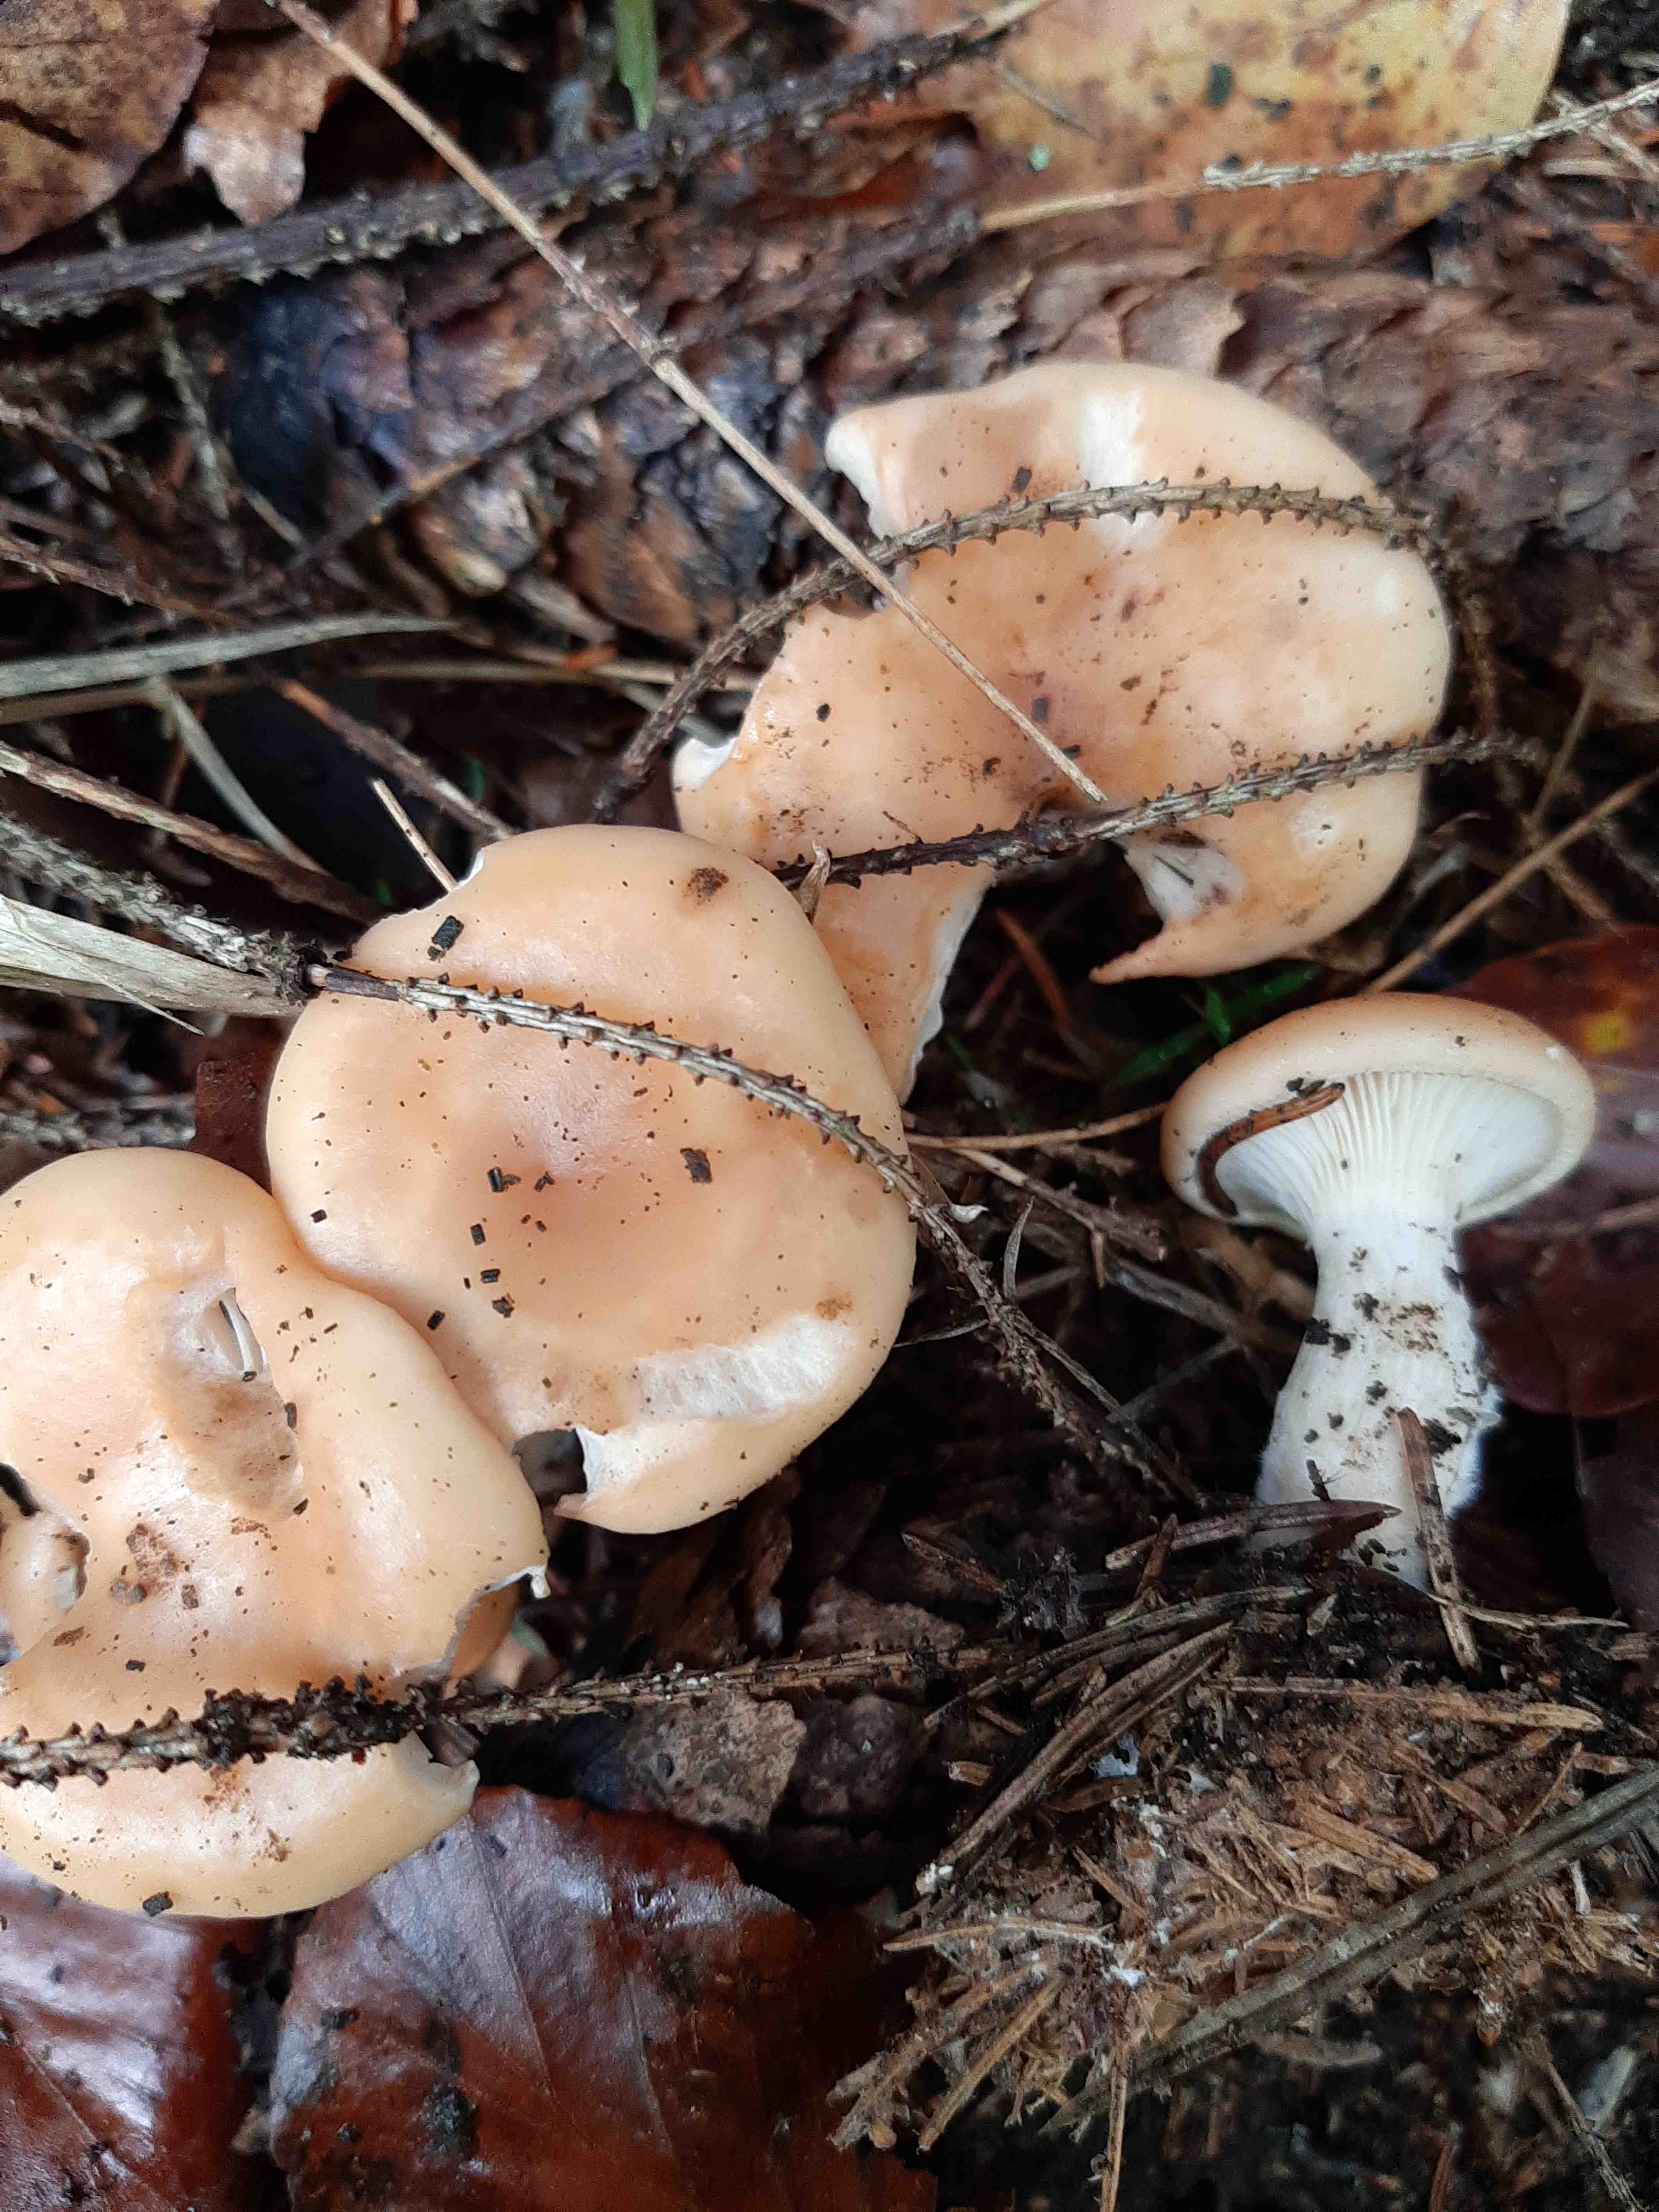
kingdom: Fungi
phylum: Basidiomycota
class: Agaricomycetes
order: Agaricales
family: Tricholomataceae
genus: Paralepista
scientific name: Paralepista flaccida
